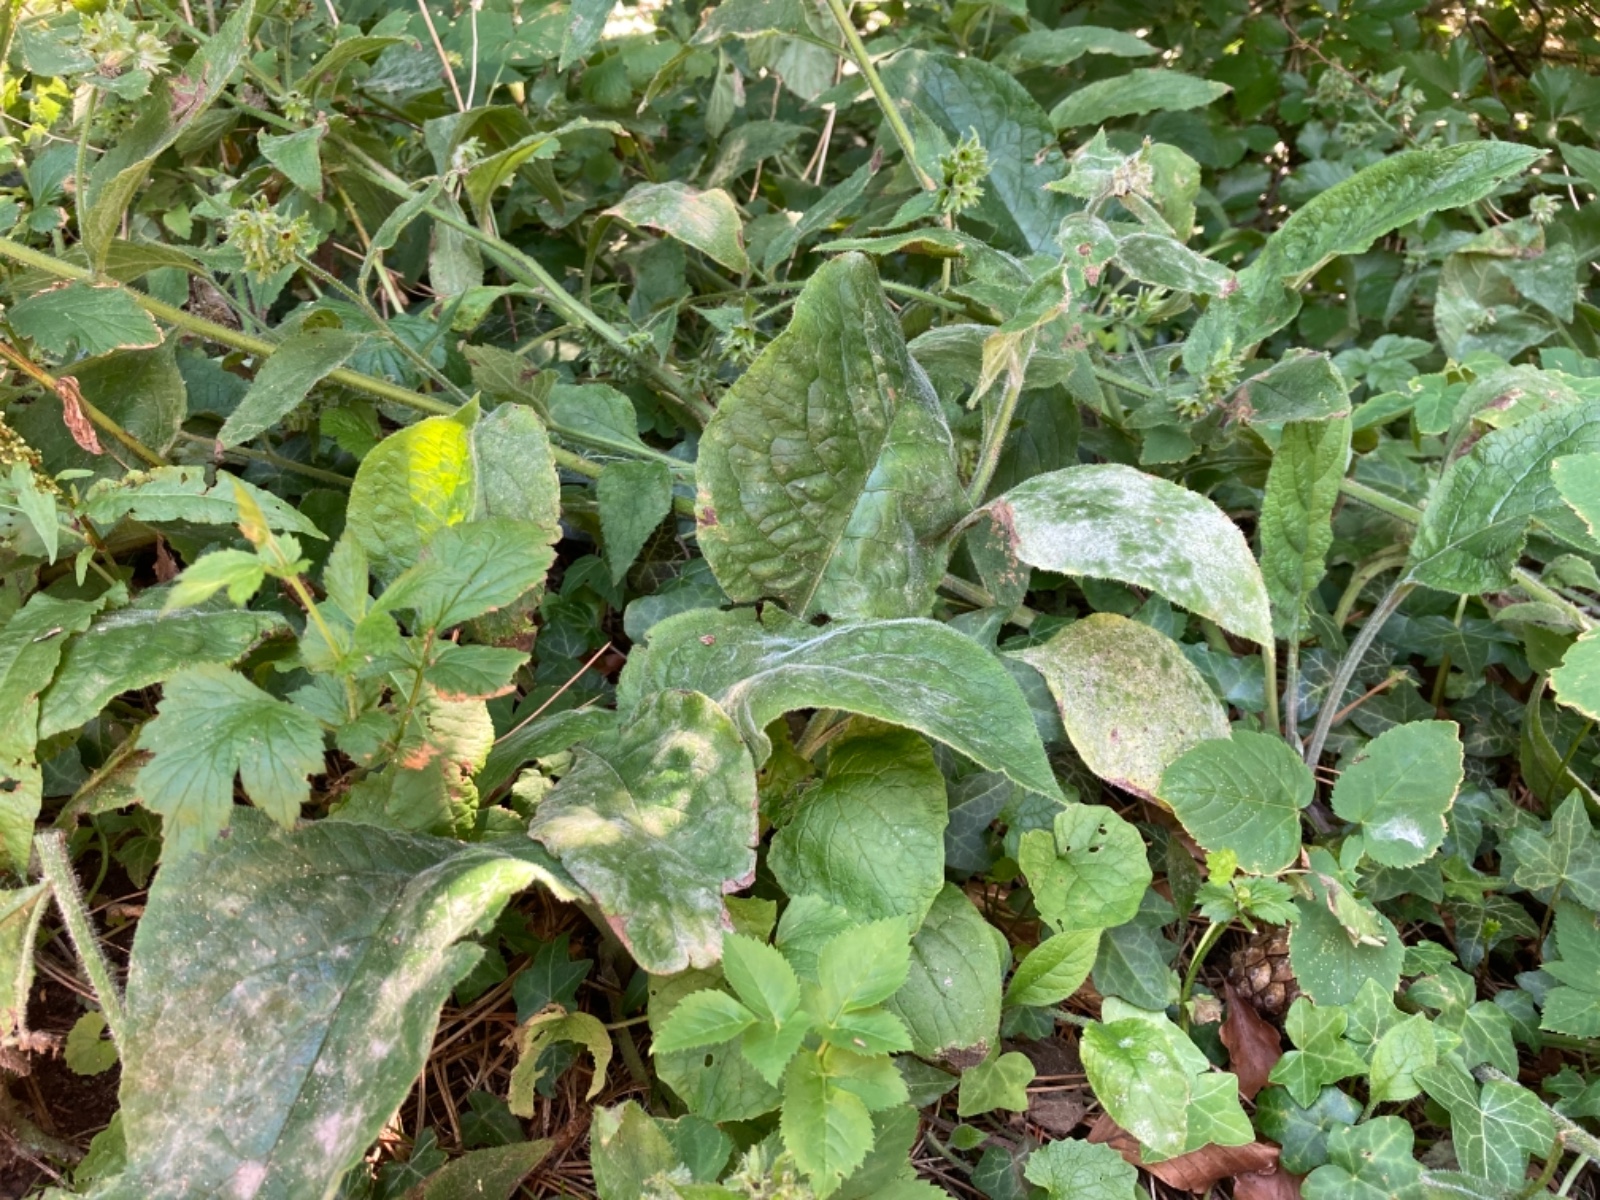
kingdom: Fungi
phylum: Ascomycota
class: Leotiomycetes
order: Helotiales
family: Erysiphaceae
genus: Golovinomyces
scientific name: Golovinomyces
